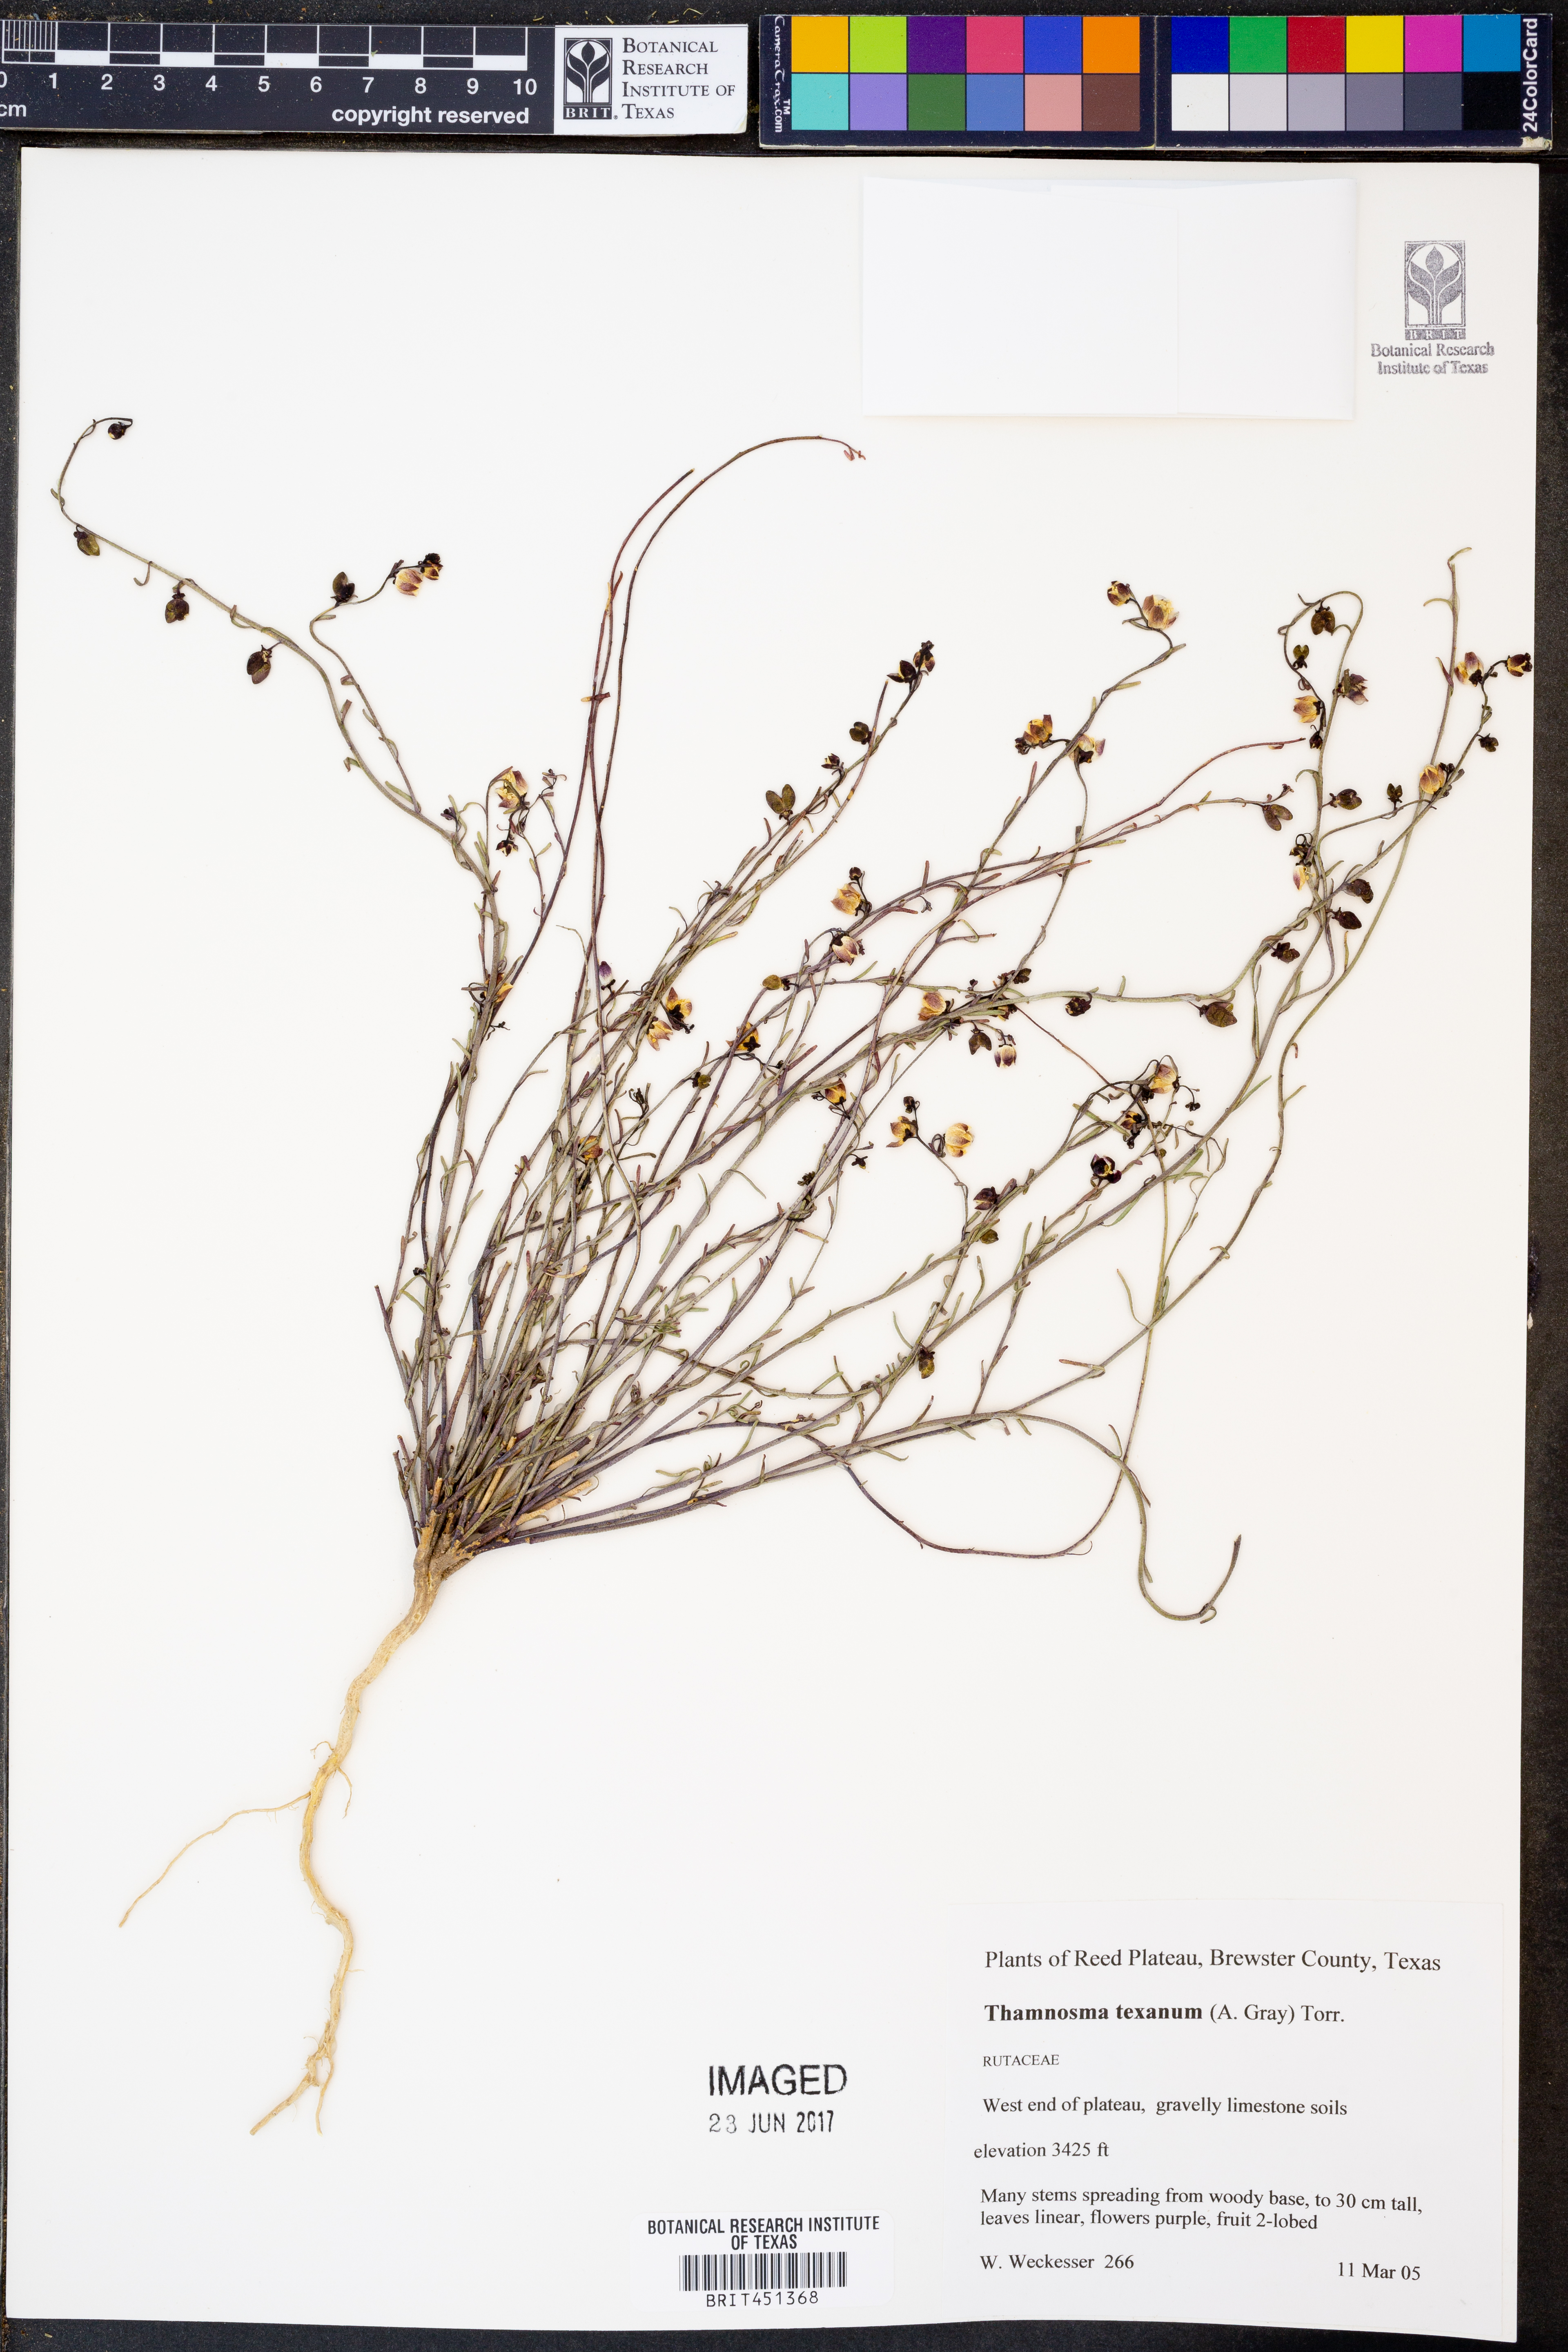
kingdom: Plantae
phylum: Tracheophyta
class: Magnoliopsida
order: Sapindales
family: Rutaceae
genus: Thamnosma
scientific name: Thamnosma texana
